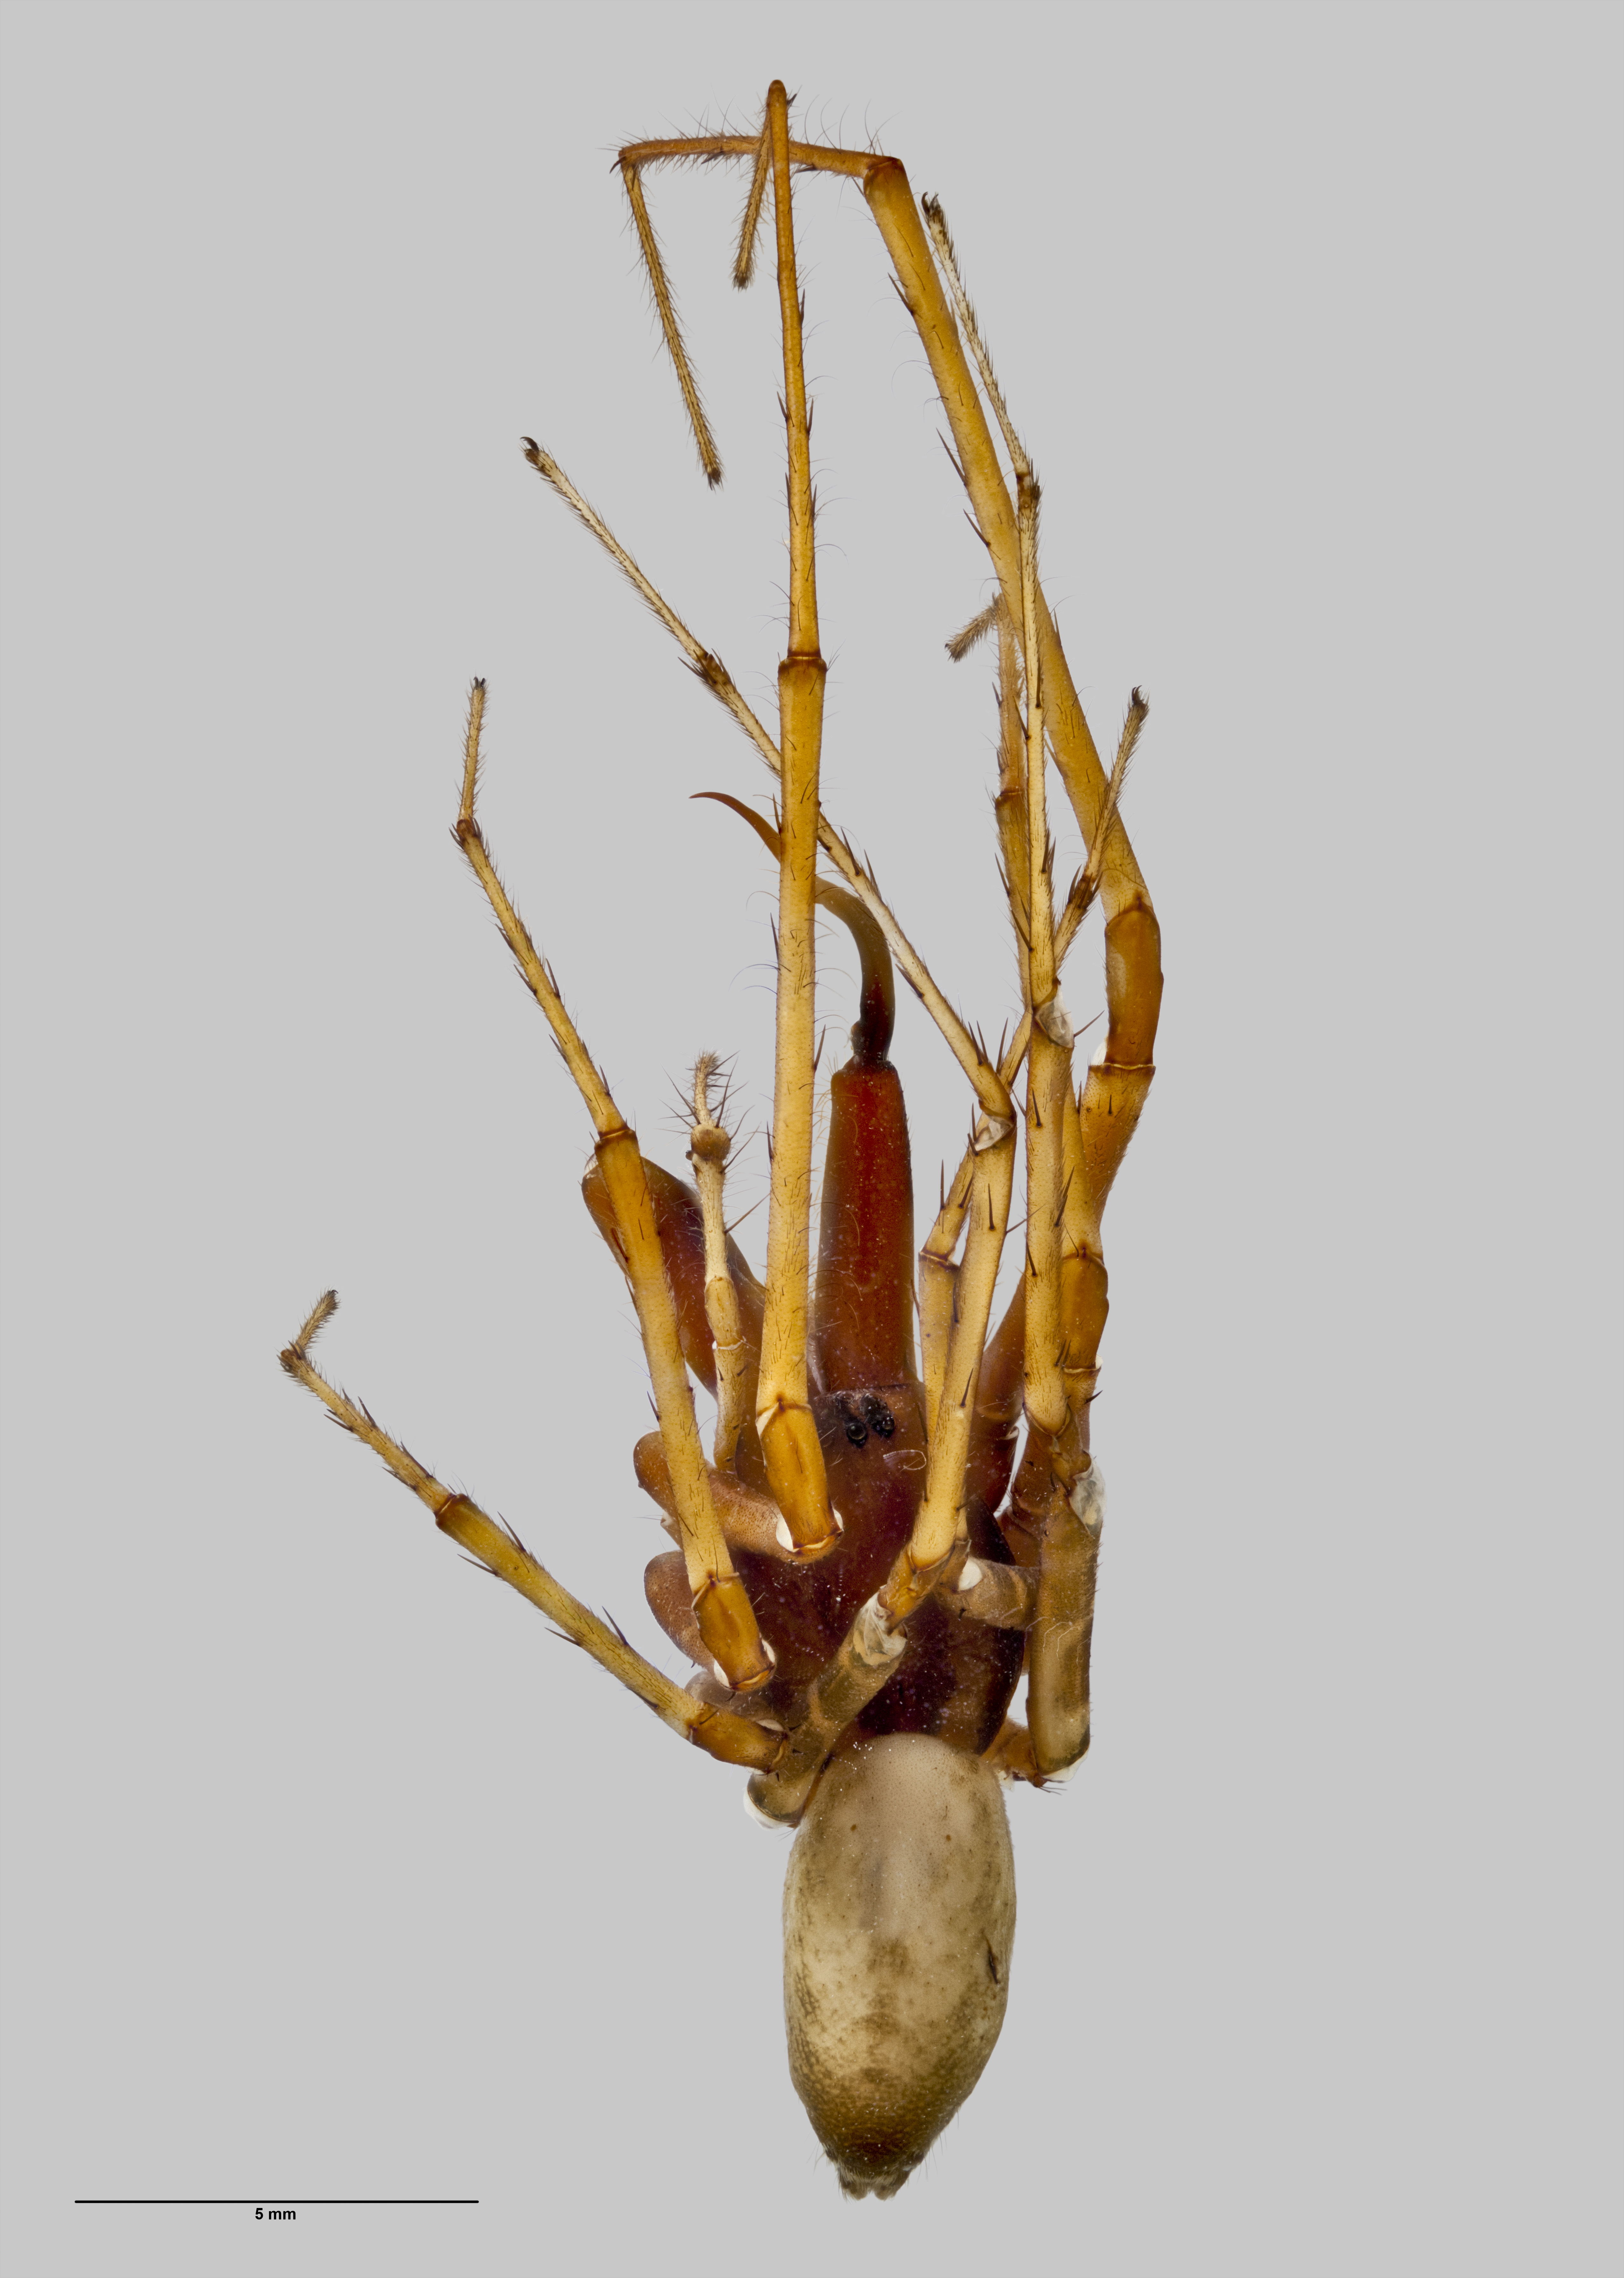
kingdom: Animalia
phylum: Arthropoda
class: Arachnida
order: Araneae
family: Desidae
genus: Cambridgea
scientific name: Cambridgea reinga
